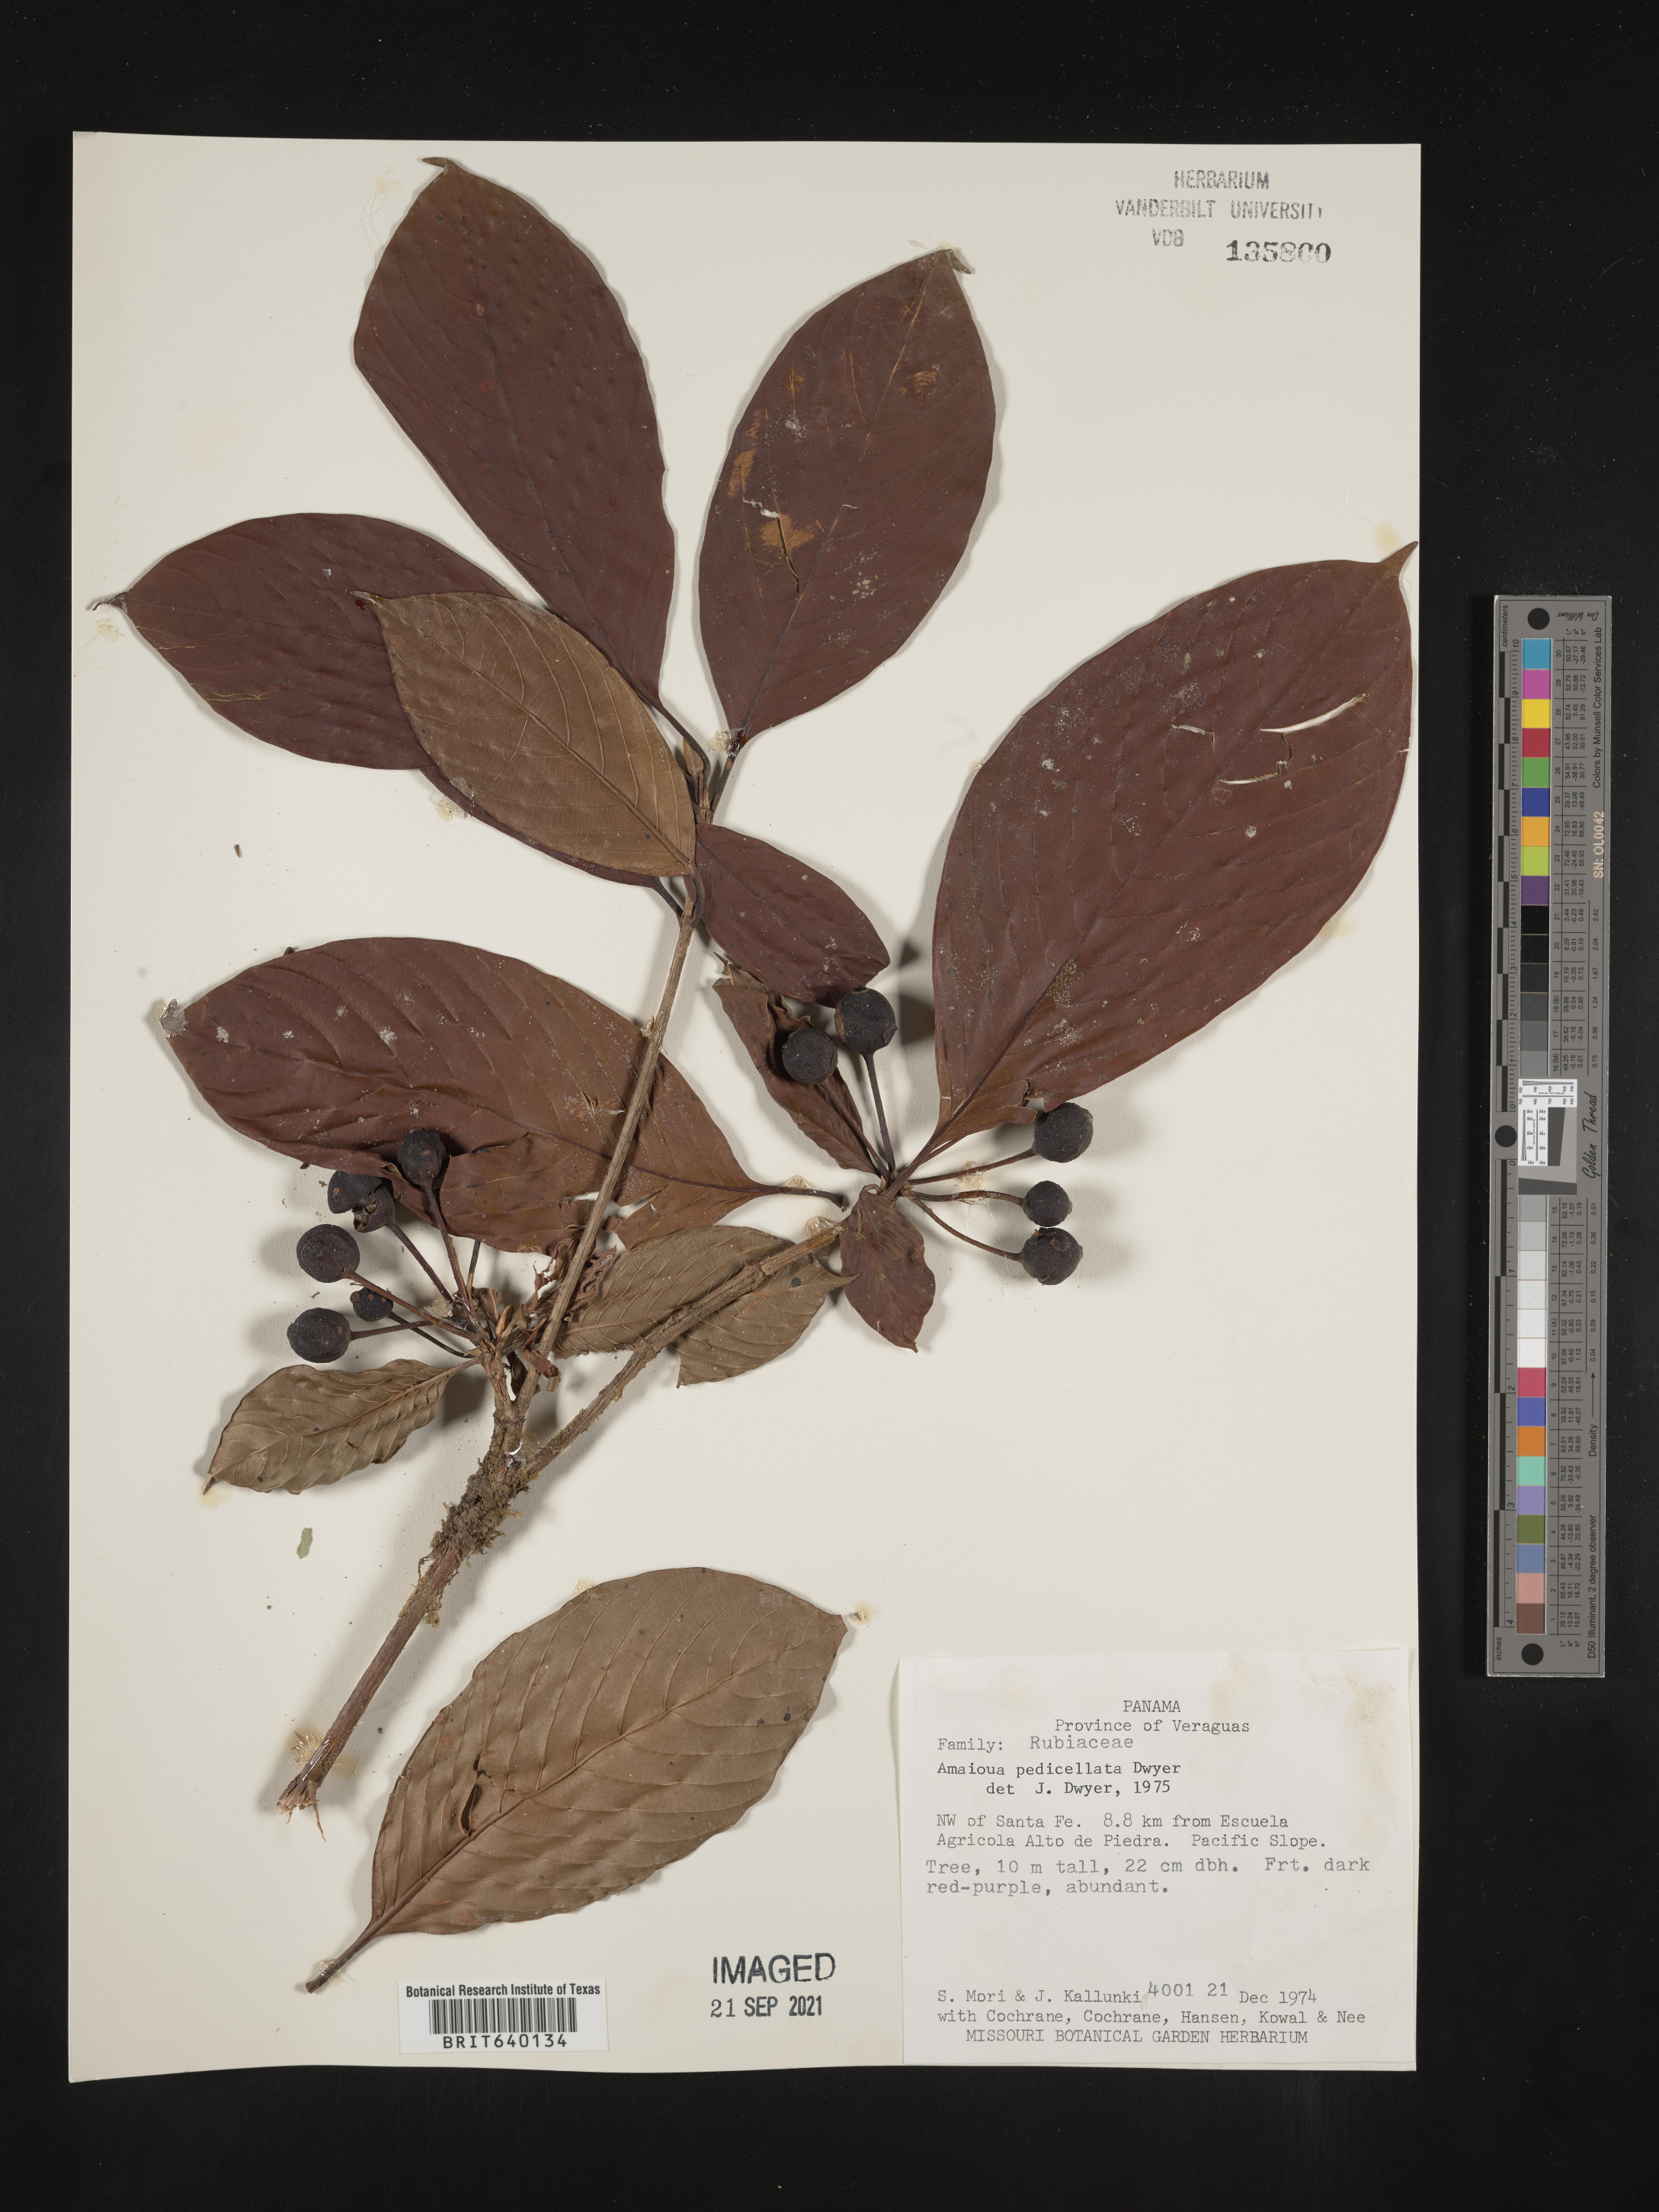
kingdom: Plantae
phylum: Tracheophyta
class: Magnoliopsida
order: Gentianales
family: Rubiaceae
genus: Amaioua
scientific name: Amaioua
